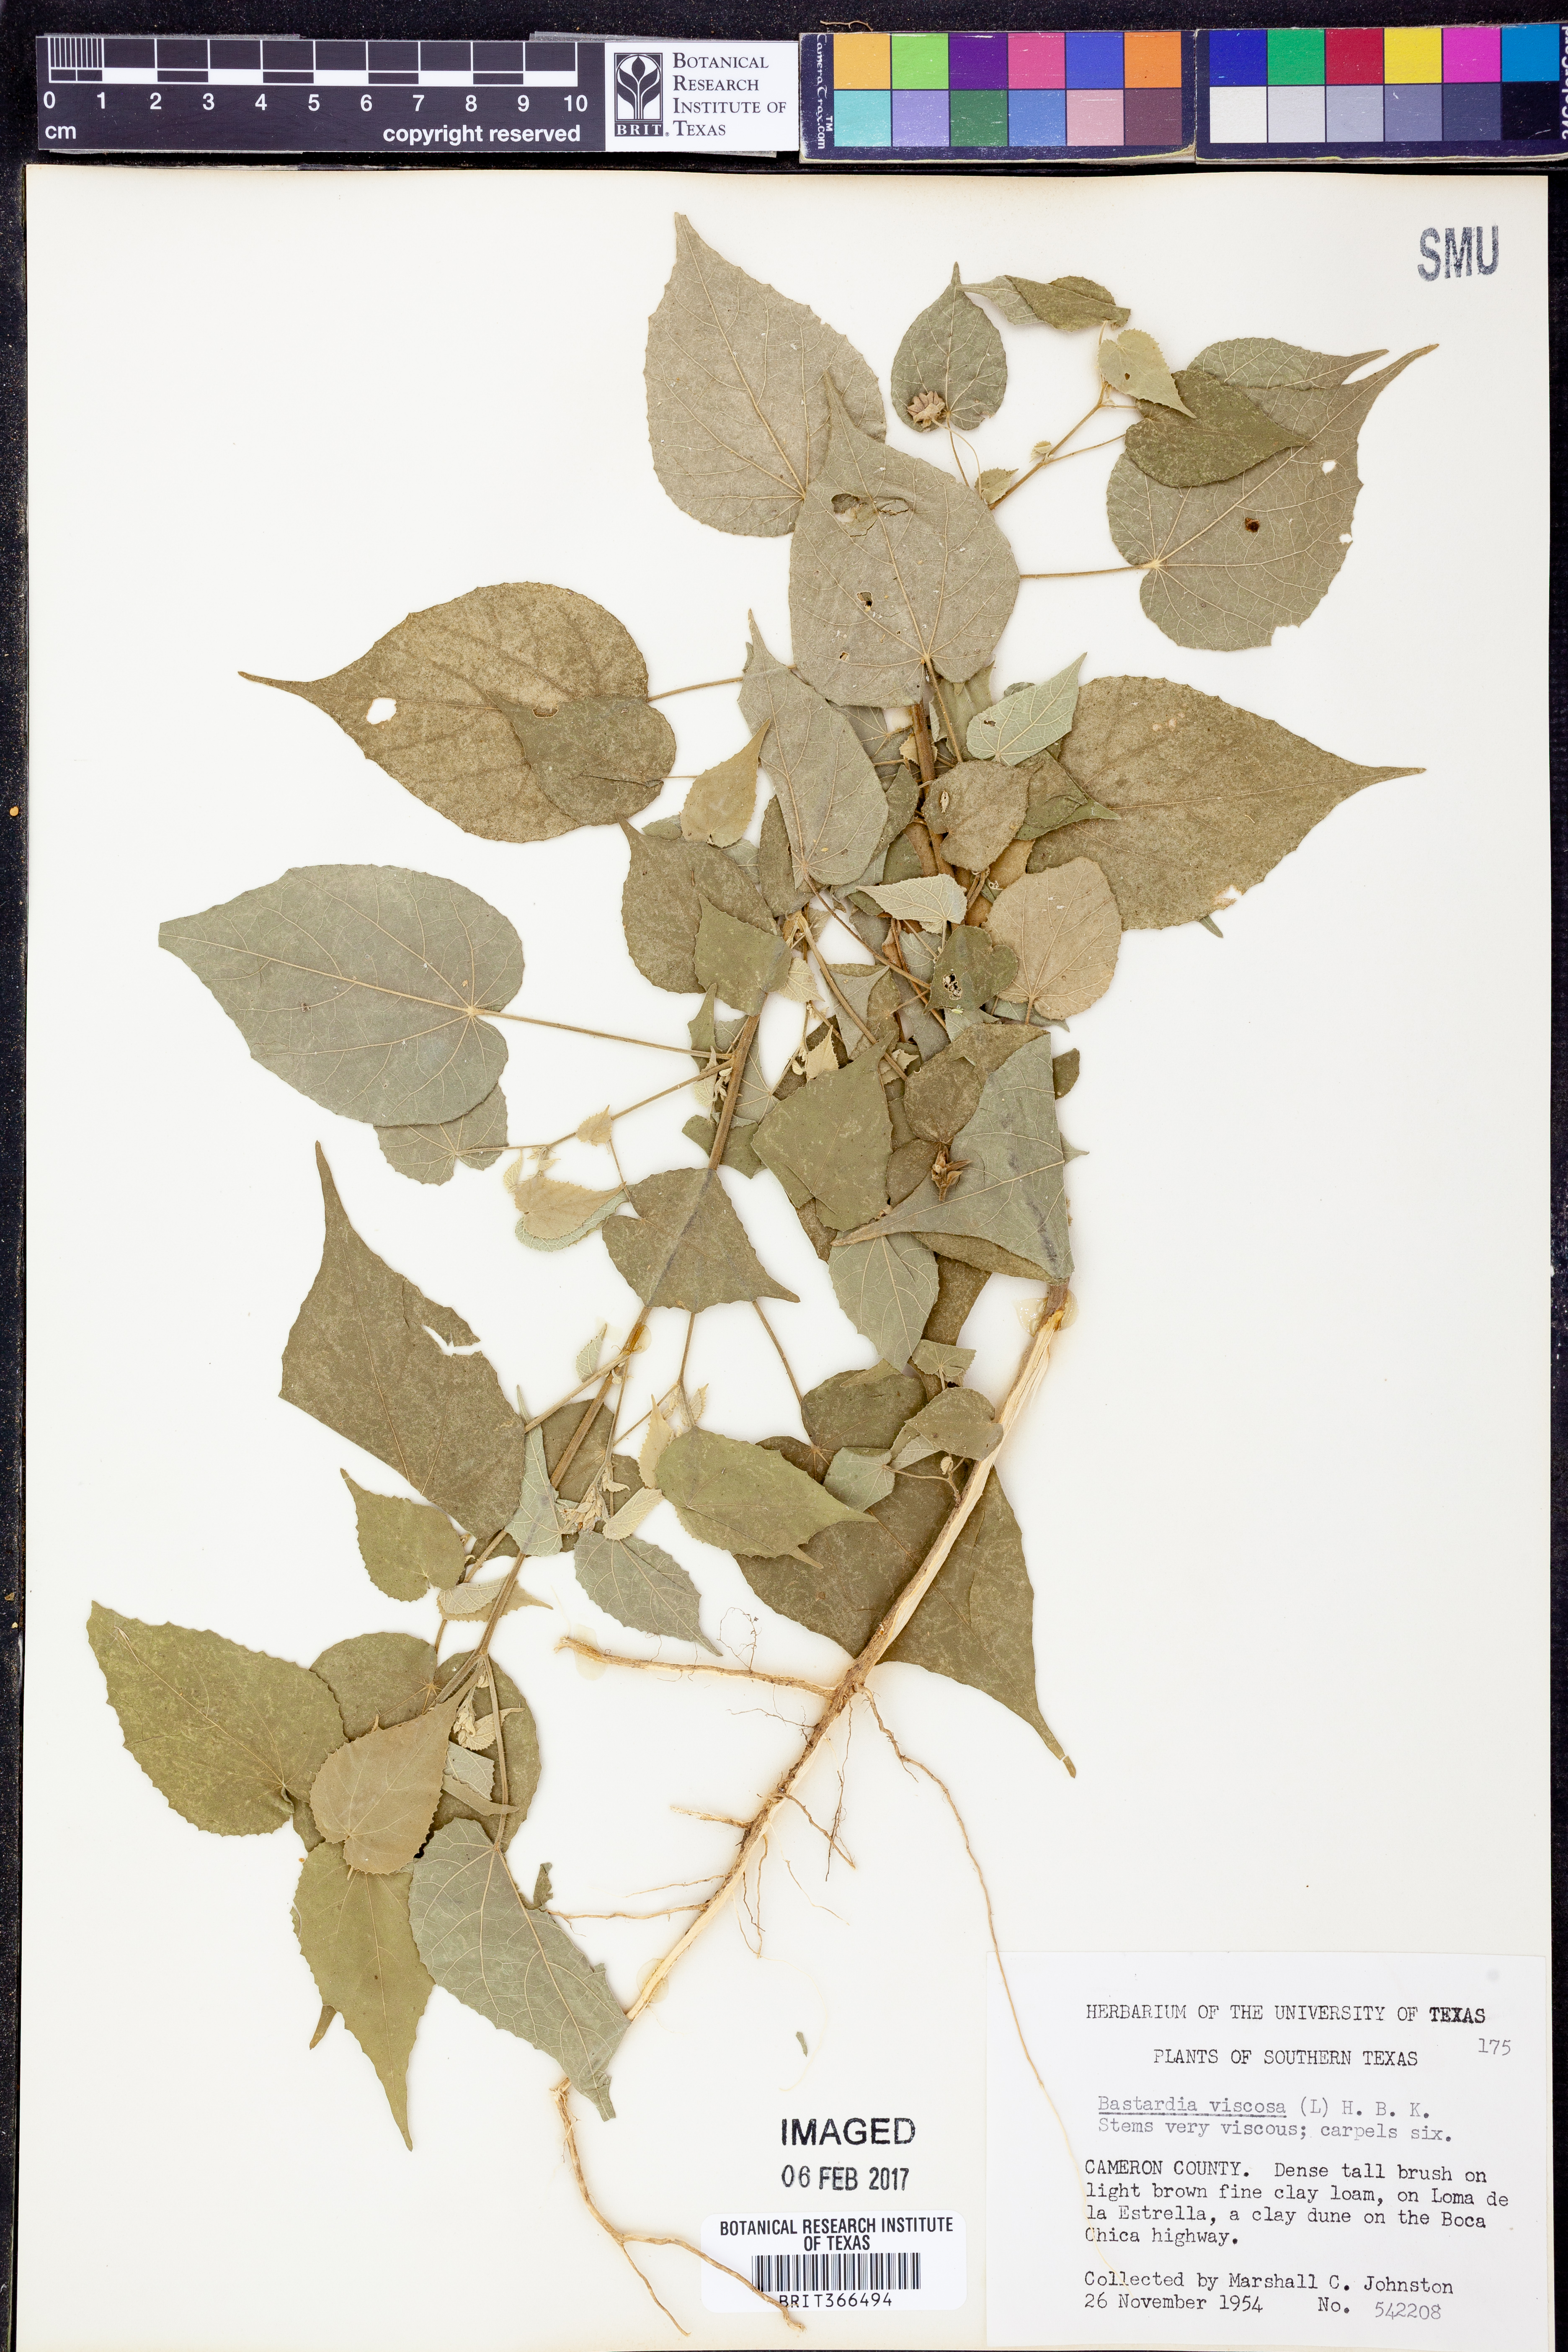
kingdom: Plantae
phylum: Tracheophyta
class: Magnoliopsida
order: Malvales
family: Malvaceae
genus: Abutilon
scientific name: Abutilon viscosum
